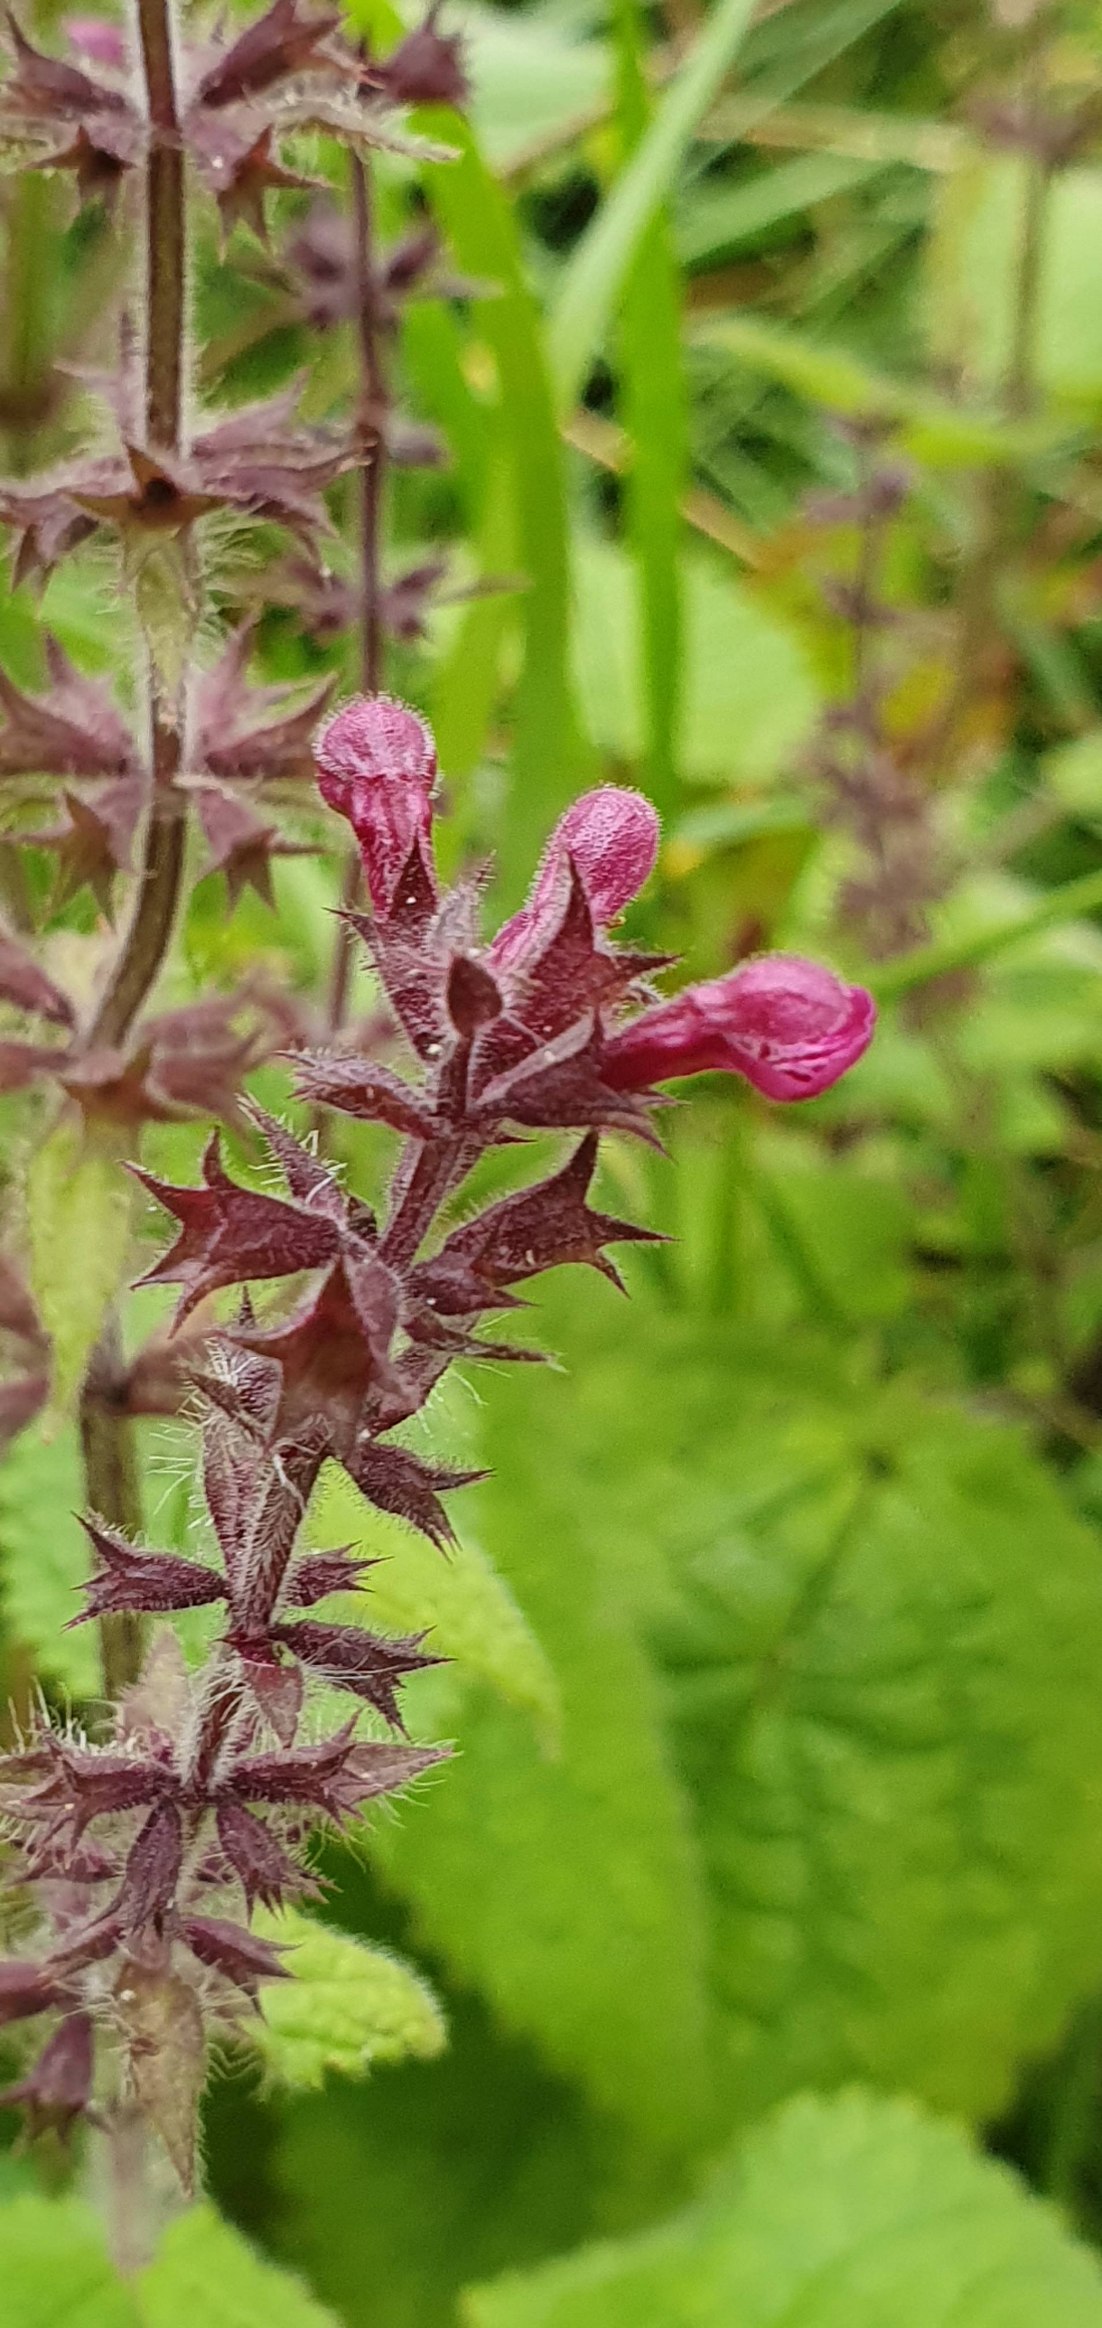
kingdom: Plantae
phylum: Tracheophyta
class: Magnoliopsida
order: Lamiales
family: Lamiaceae
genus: Stachys
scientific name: Stachys sylvatica
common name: Skov-galtetand
